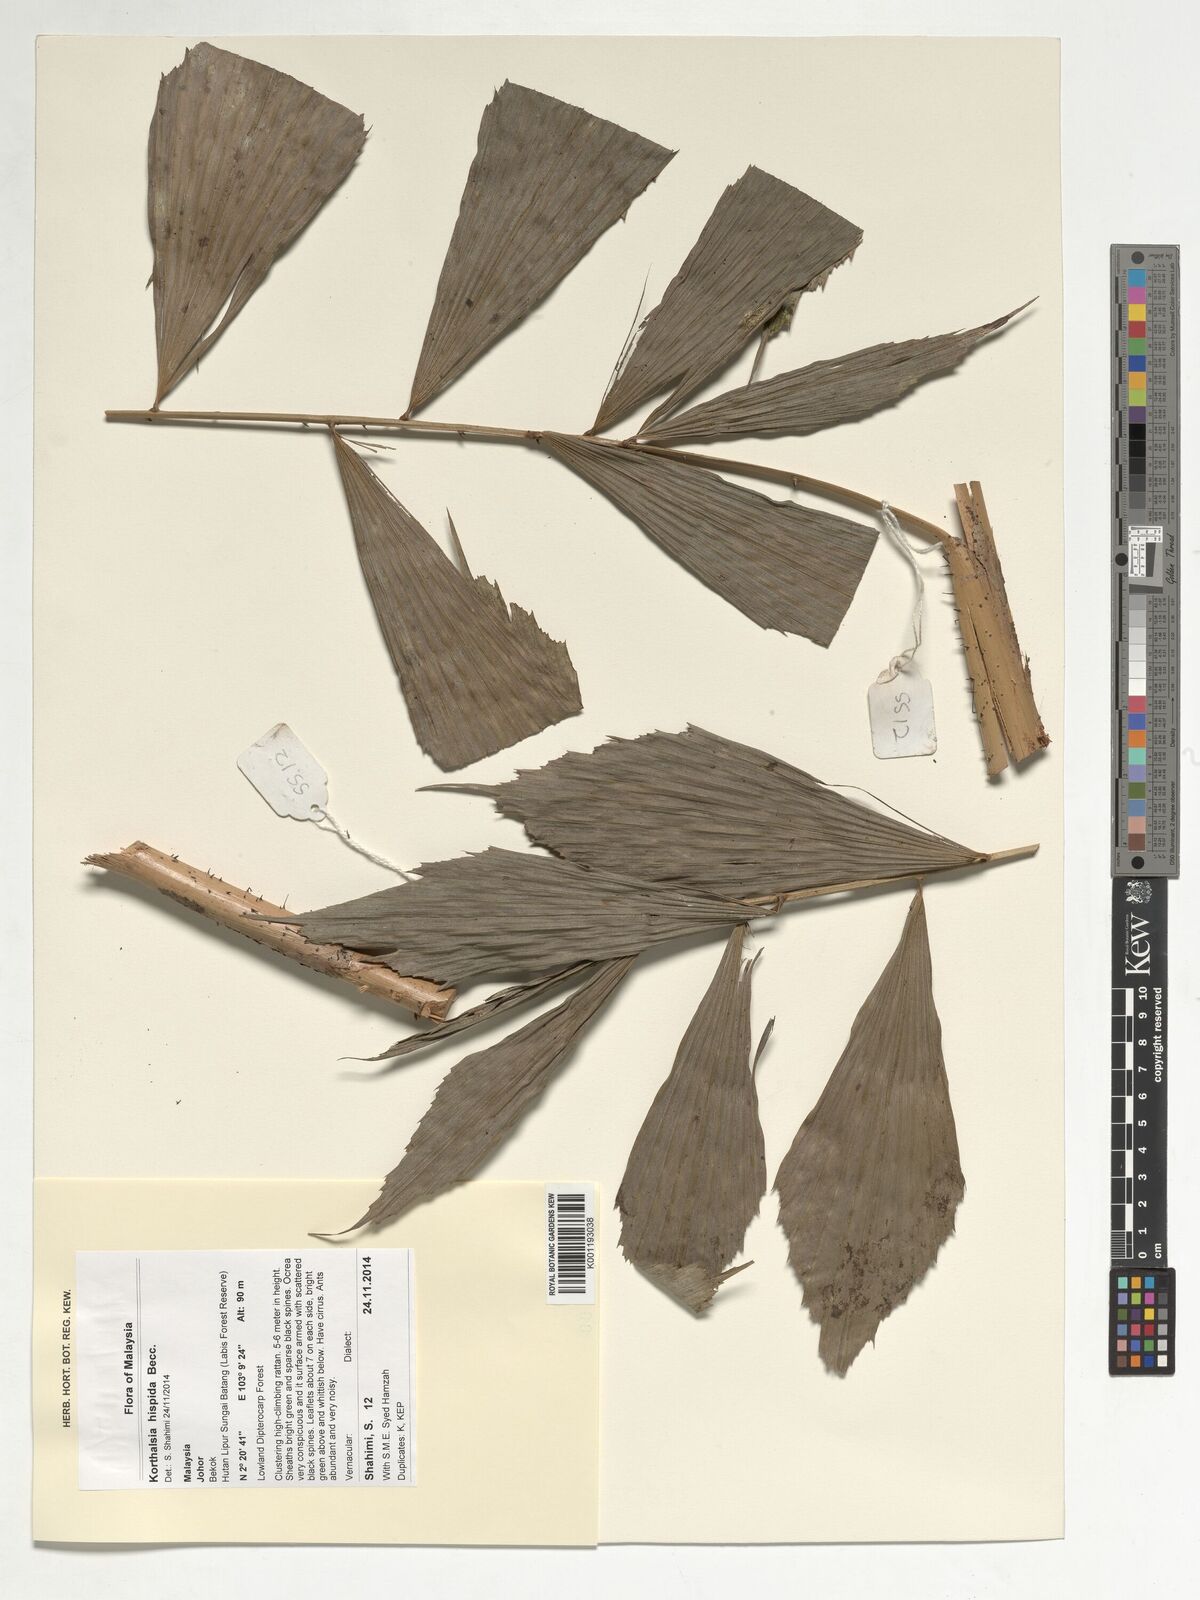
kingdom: Plantae
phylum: Tracheophyta
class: Liliopsida
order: Arecales
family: Arecaceae
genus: Korthalsia
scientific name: Korthalsia hispida
